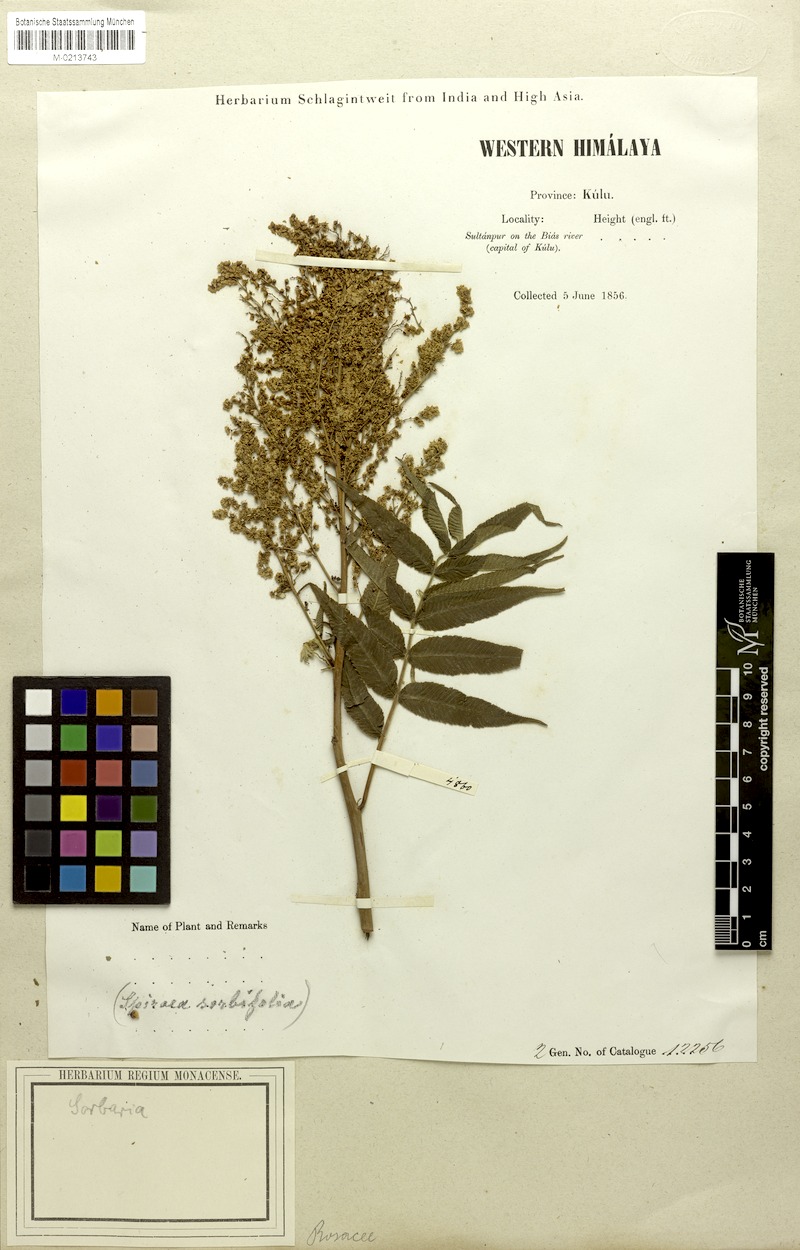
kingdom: Plantae
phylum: Tracheophyta
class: Magnoliopsida
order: Rosales
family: Rosaceae
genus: Sorbaria
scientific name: Sorbaria sorbifolia
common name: False spiraea
